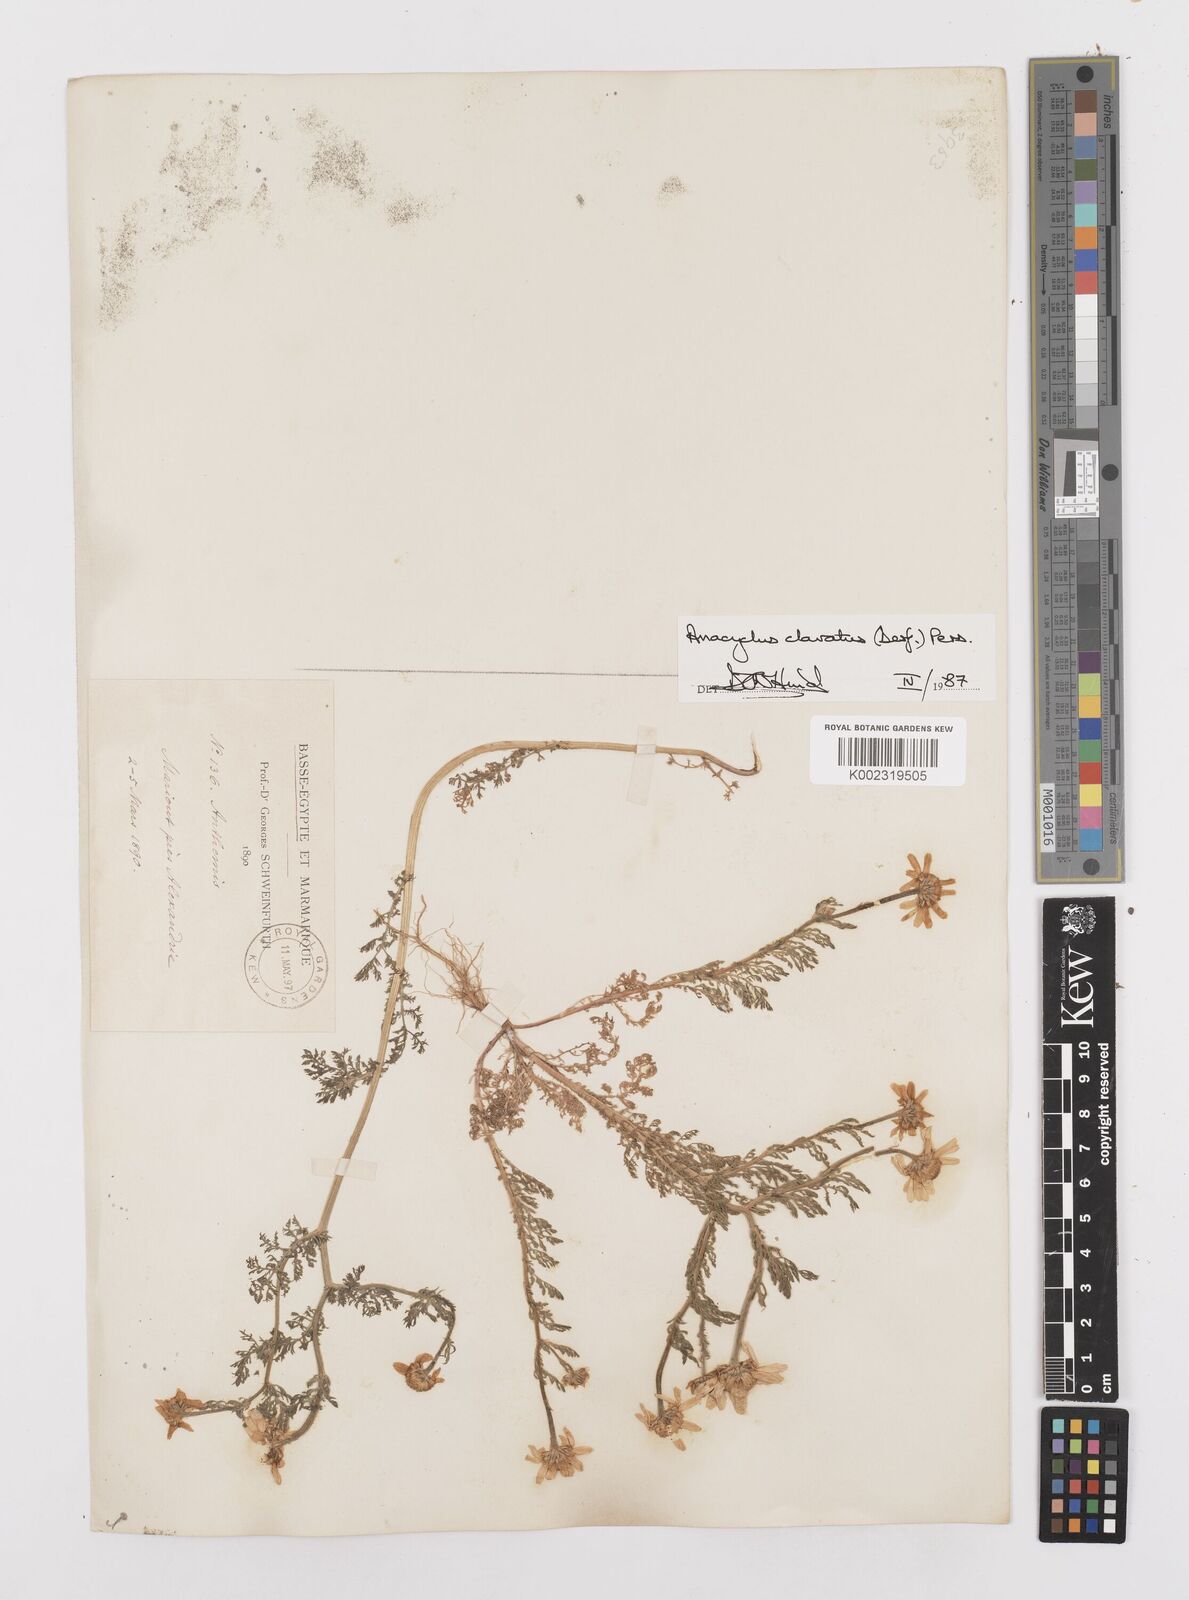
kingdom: Plantae
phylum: Tracheophyta
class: Magnoliopsida
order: Asterales
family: Asteraceae
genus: Anacyclus
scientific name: Anacyclus clavatus
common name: Whitebuttons
